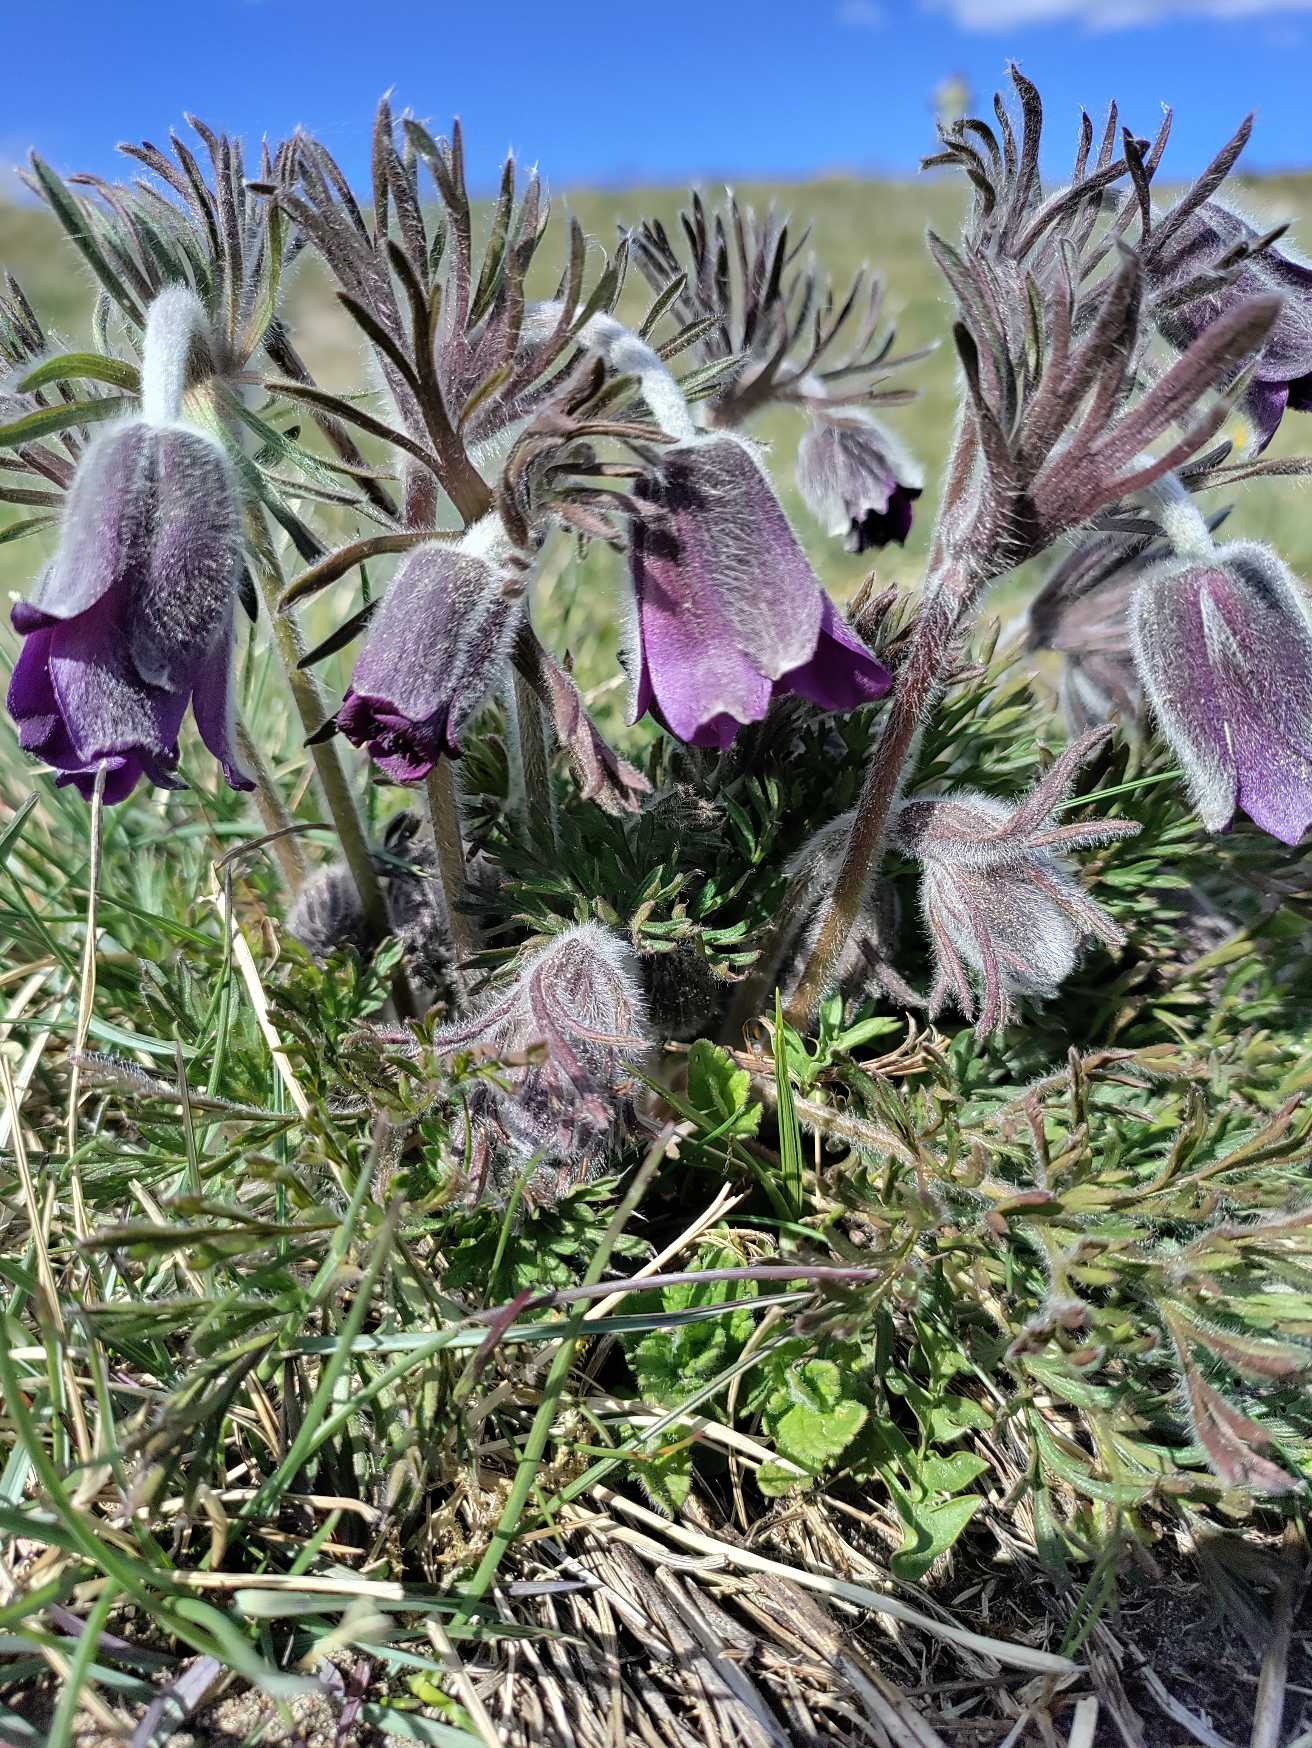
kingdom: Plantae
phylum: Tracheophyta
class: Magnoliopsida
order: Ranunculales
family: Ranunculaceae
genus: Pulsatilla
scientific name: Pulsatilla pratensis
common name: Nikkende kobjælde
